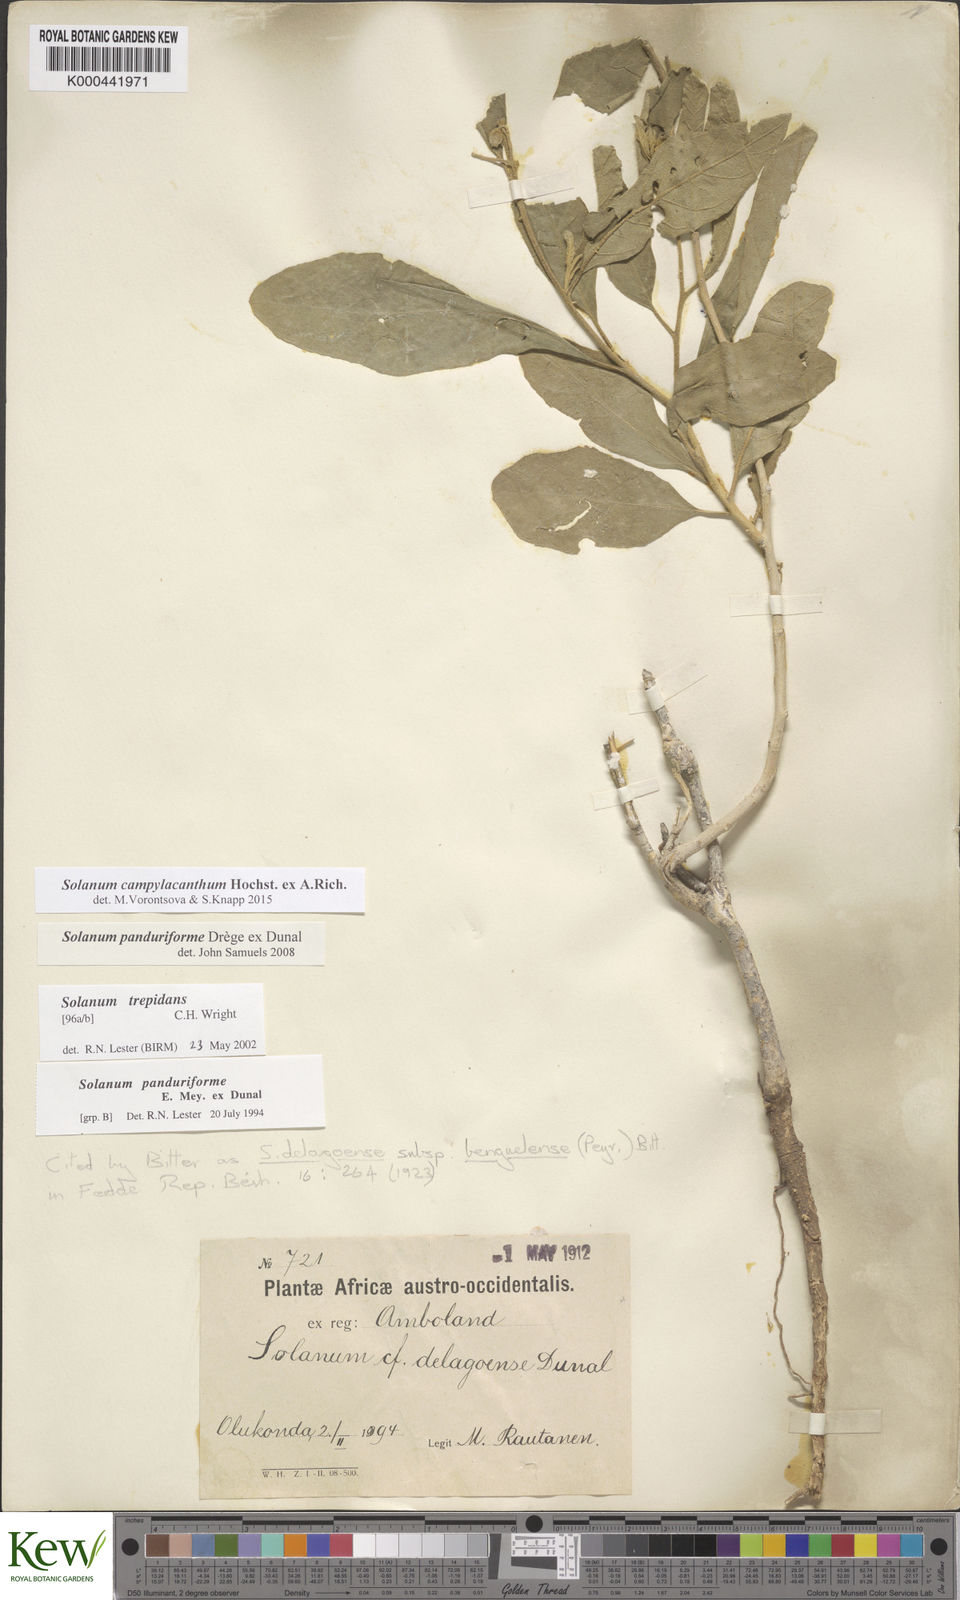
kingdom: Plantae
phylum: Tracheophyta
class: Magnoliopsida
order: Solanales
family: Solanaceae
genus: Solanum
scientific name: Solanum campylacanthum
